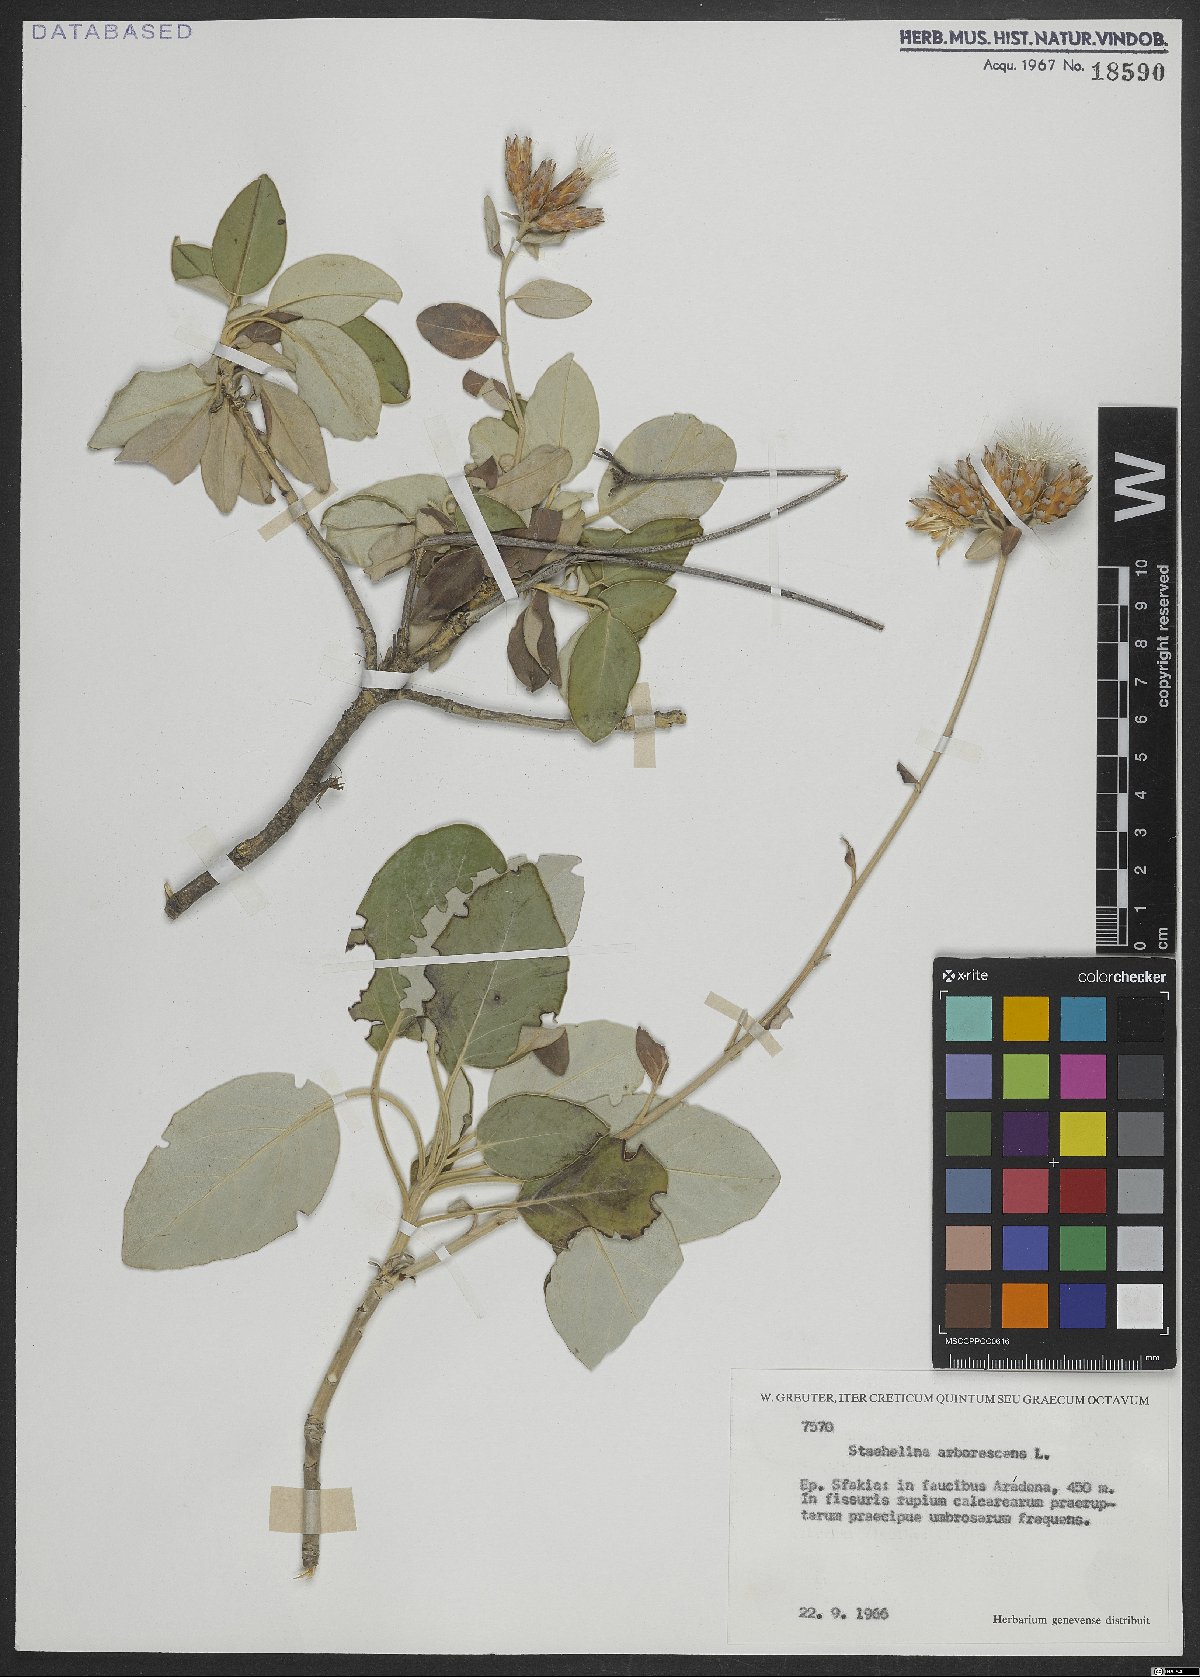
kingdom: Plantae
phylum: Tracheophyta
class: Magnoliopsida
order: Asterales
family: Asteraceae
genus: Staehelina
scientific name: Staehelina
